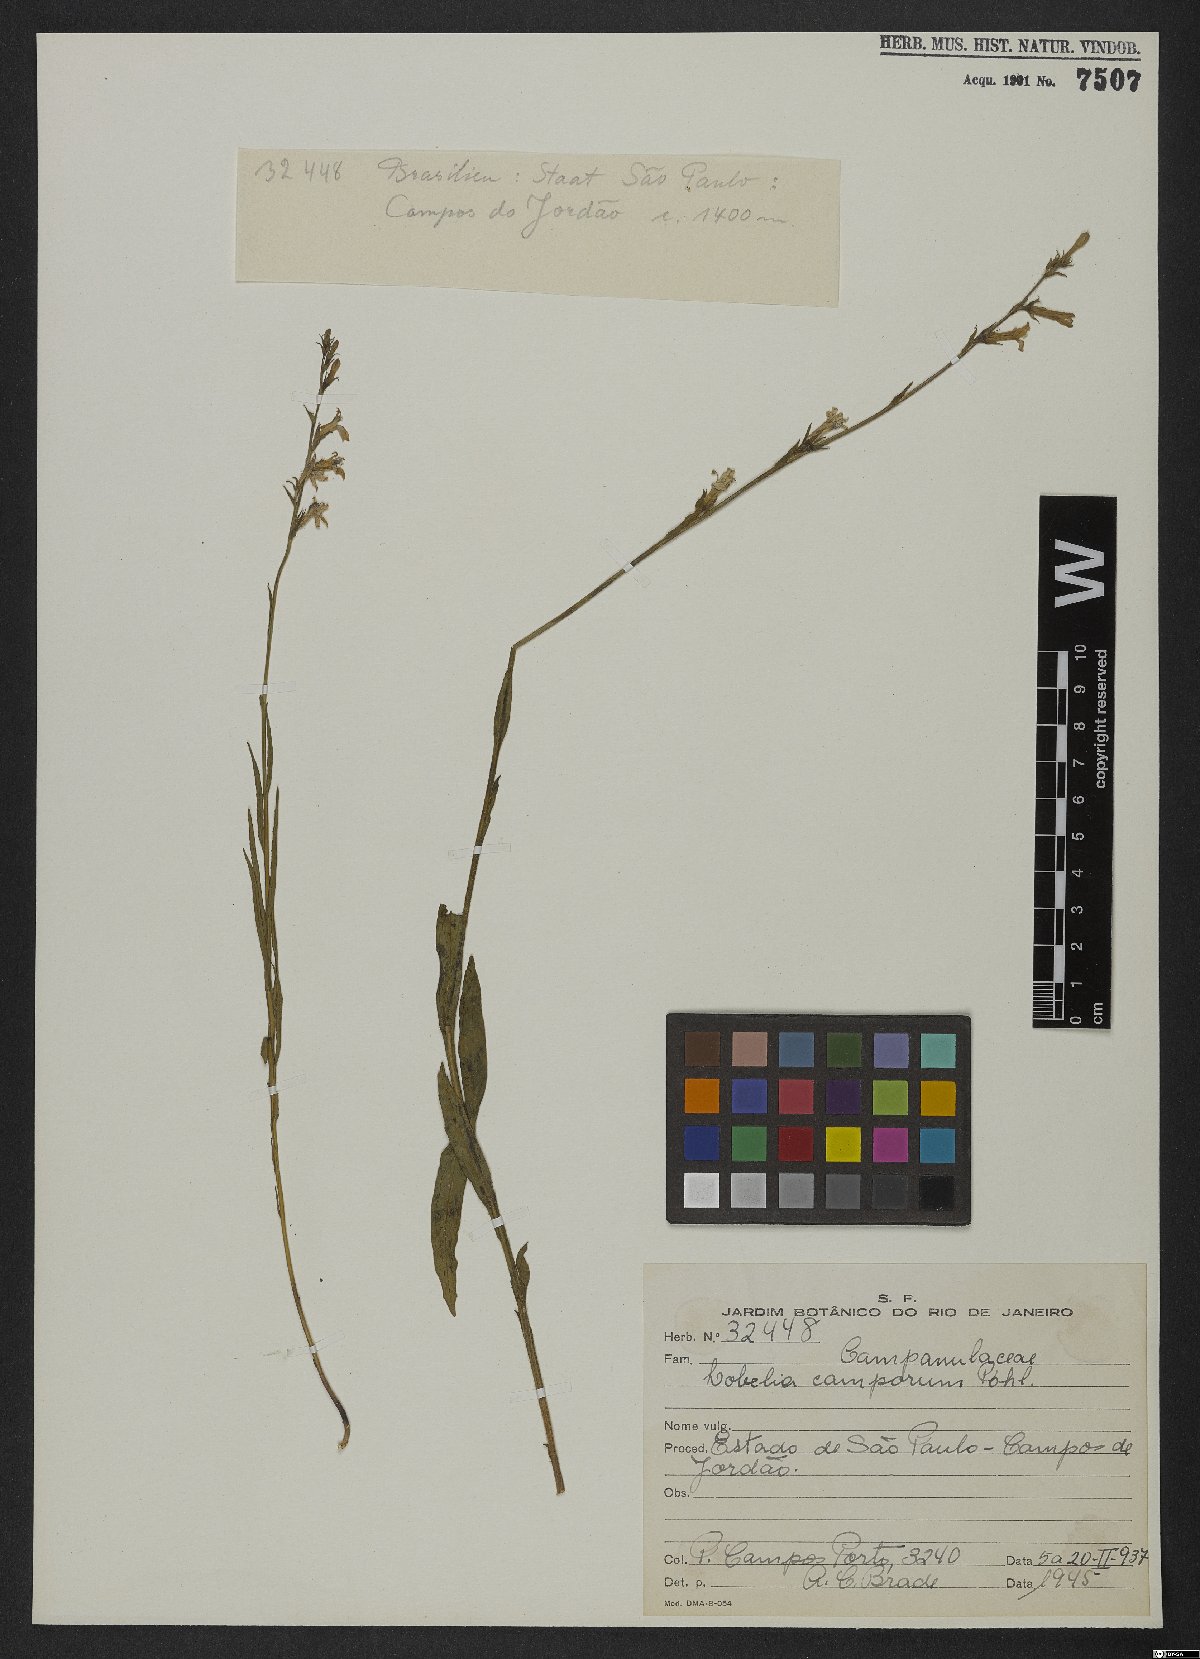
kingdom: Plantae
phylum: Tracheophyta
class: Magnoliopsida
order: Asterales
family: Campanulaceae
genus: Lobelia
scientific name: Lobelia camporum
